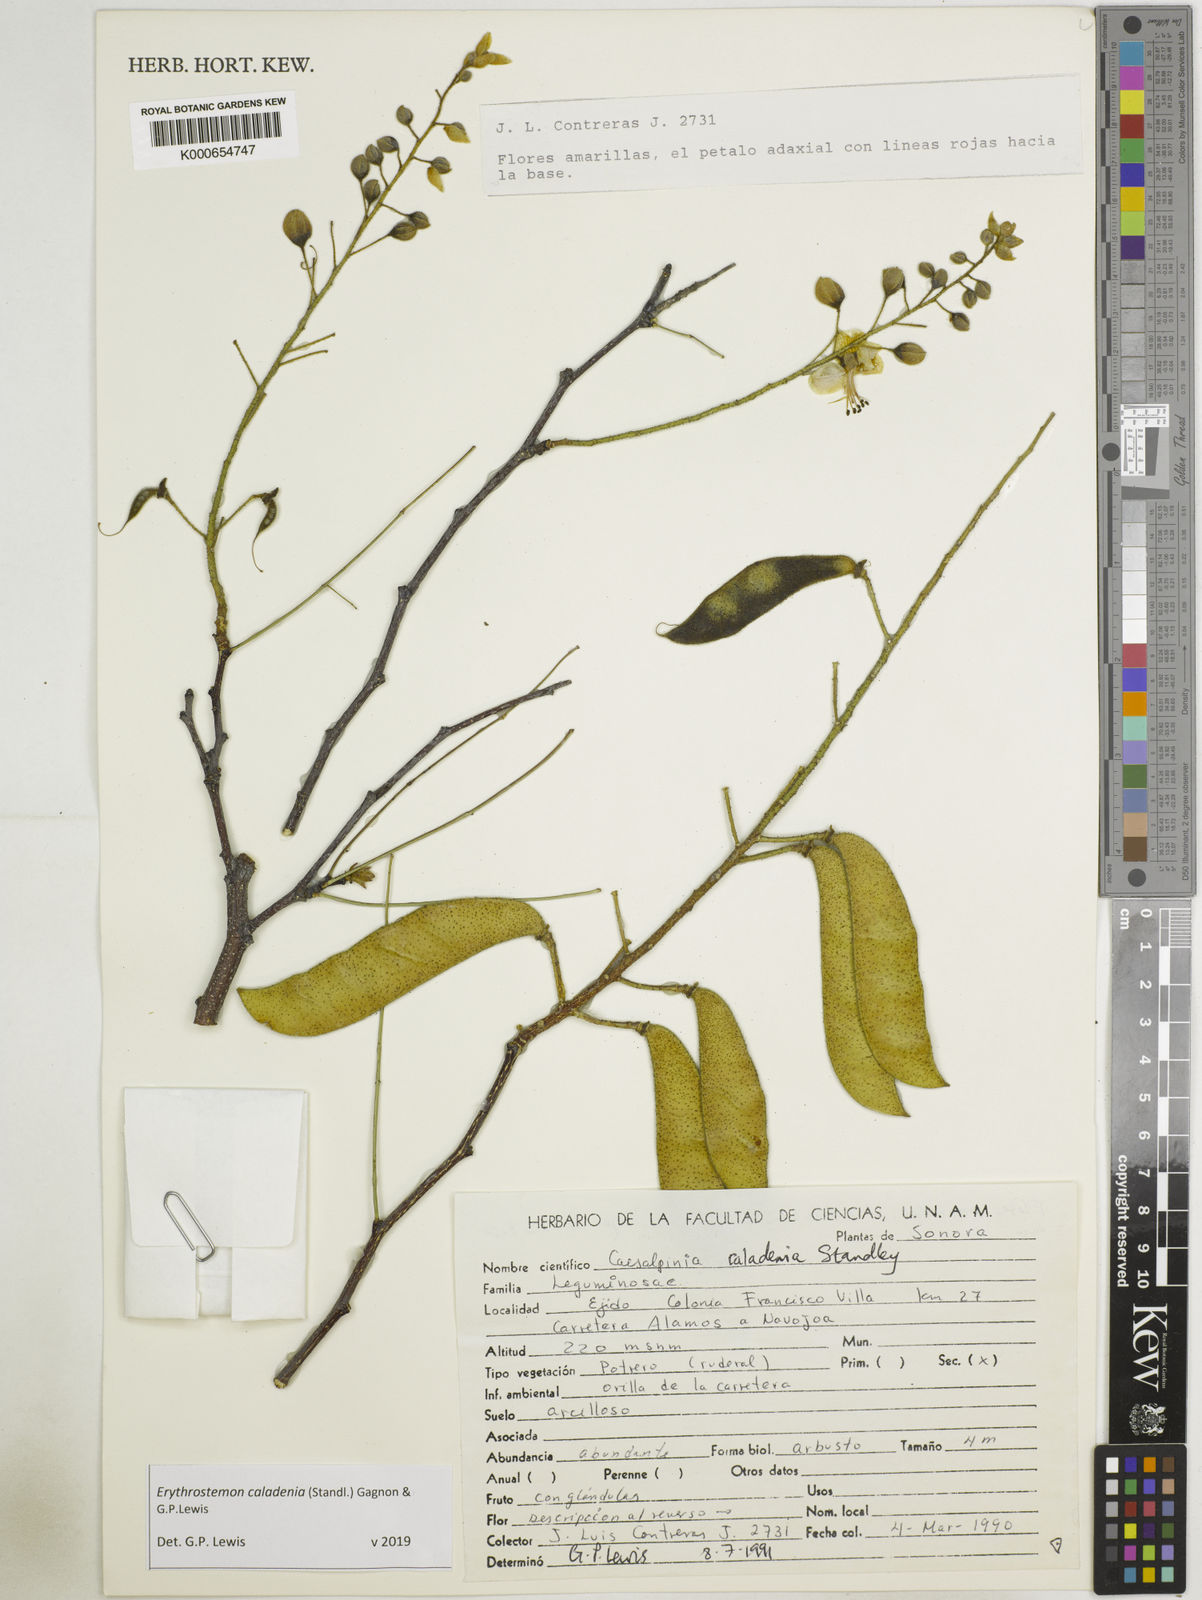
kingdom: Plantae
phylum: Tracheophyta
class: Magnoliopsida
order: Fabales
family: Fabaceae
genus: Erythrostemon
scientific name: Erythrostemon caladenia
